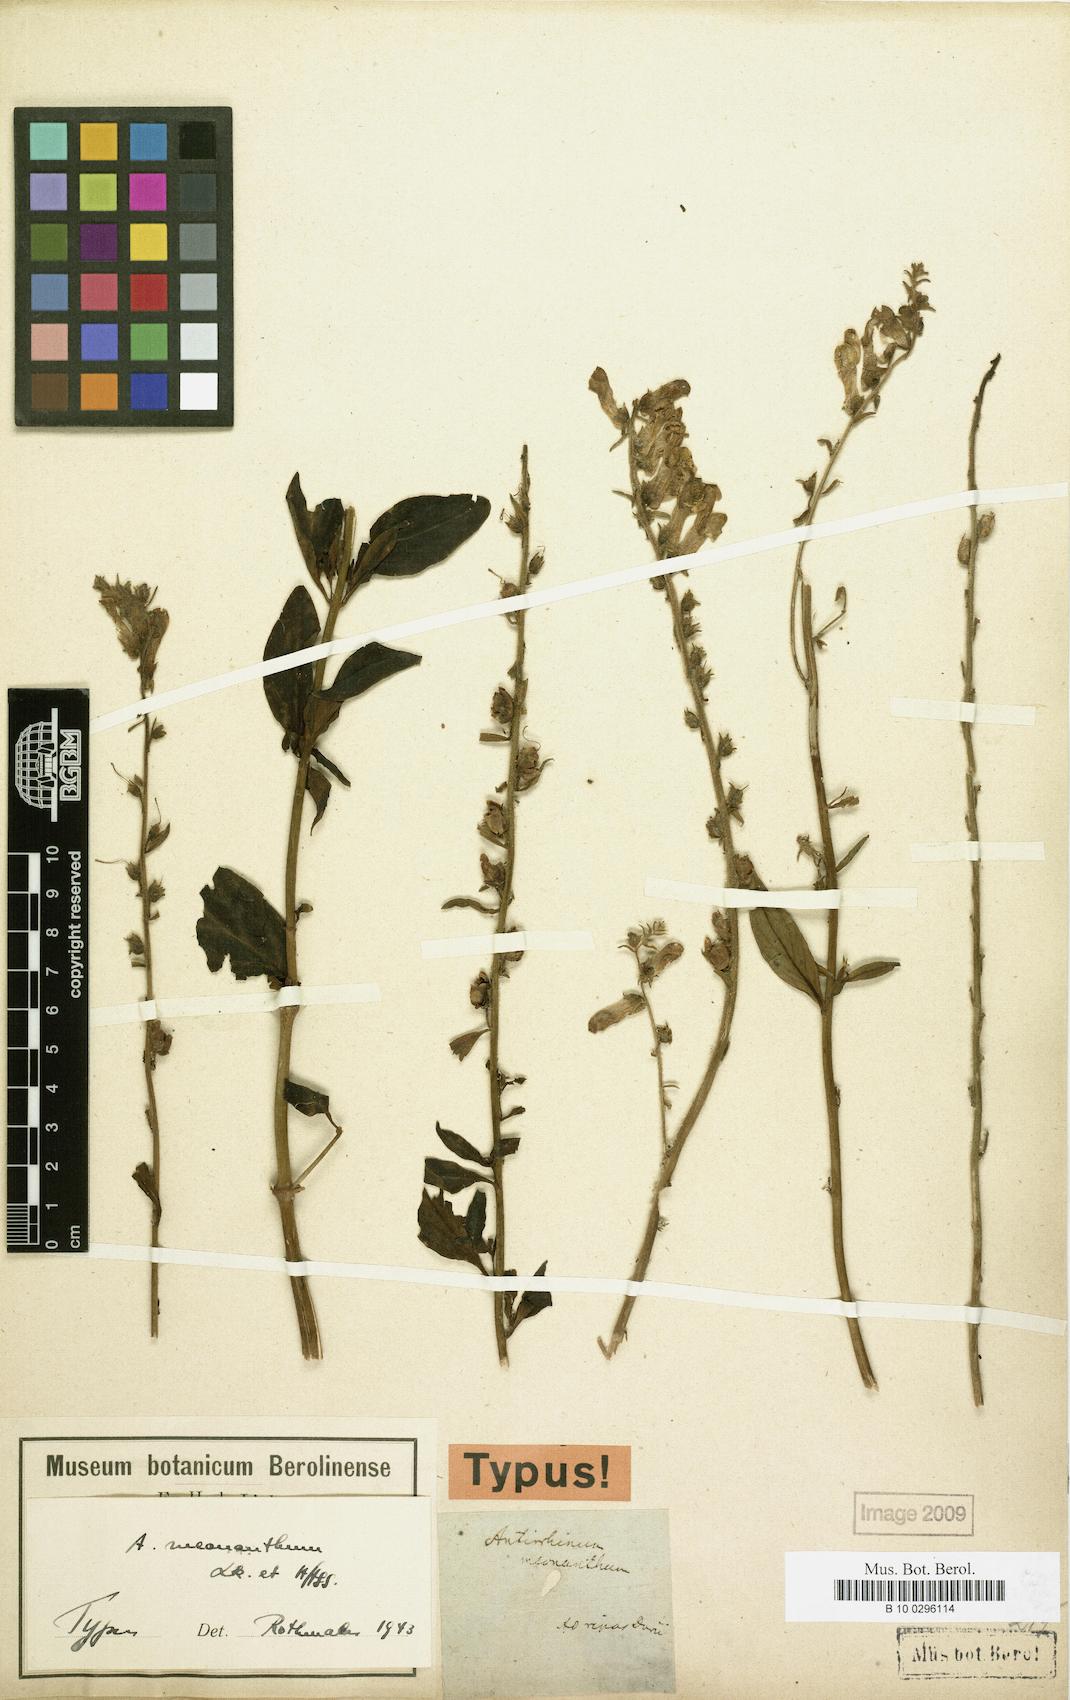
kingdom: Plantae
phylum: Tracheophyta
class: Magnoliopsida
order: Lamiales
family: Plantaginaceae
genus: Antirrhinum
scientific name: Antirrhinum meonanthum
